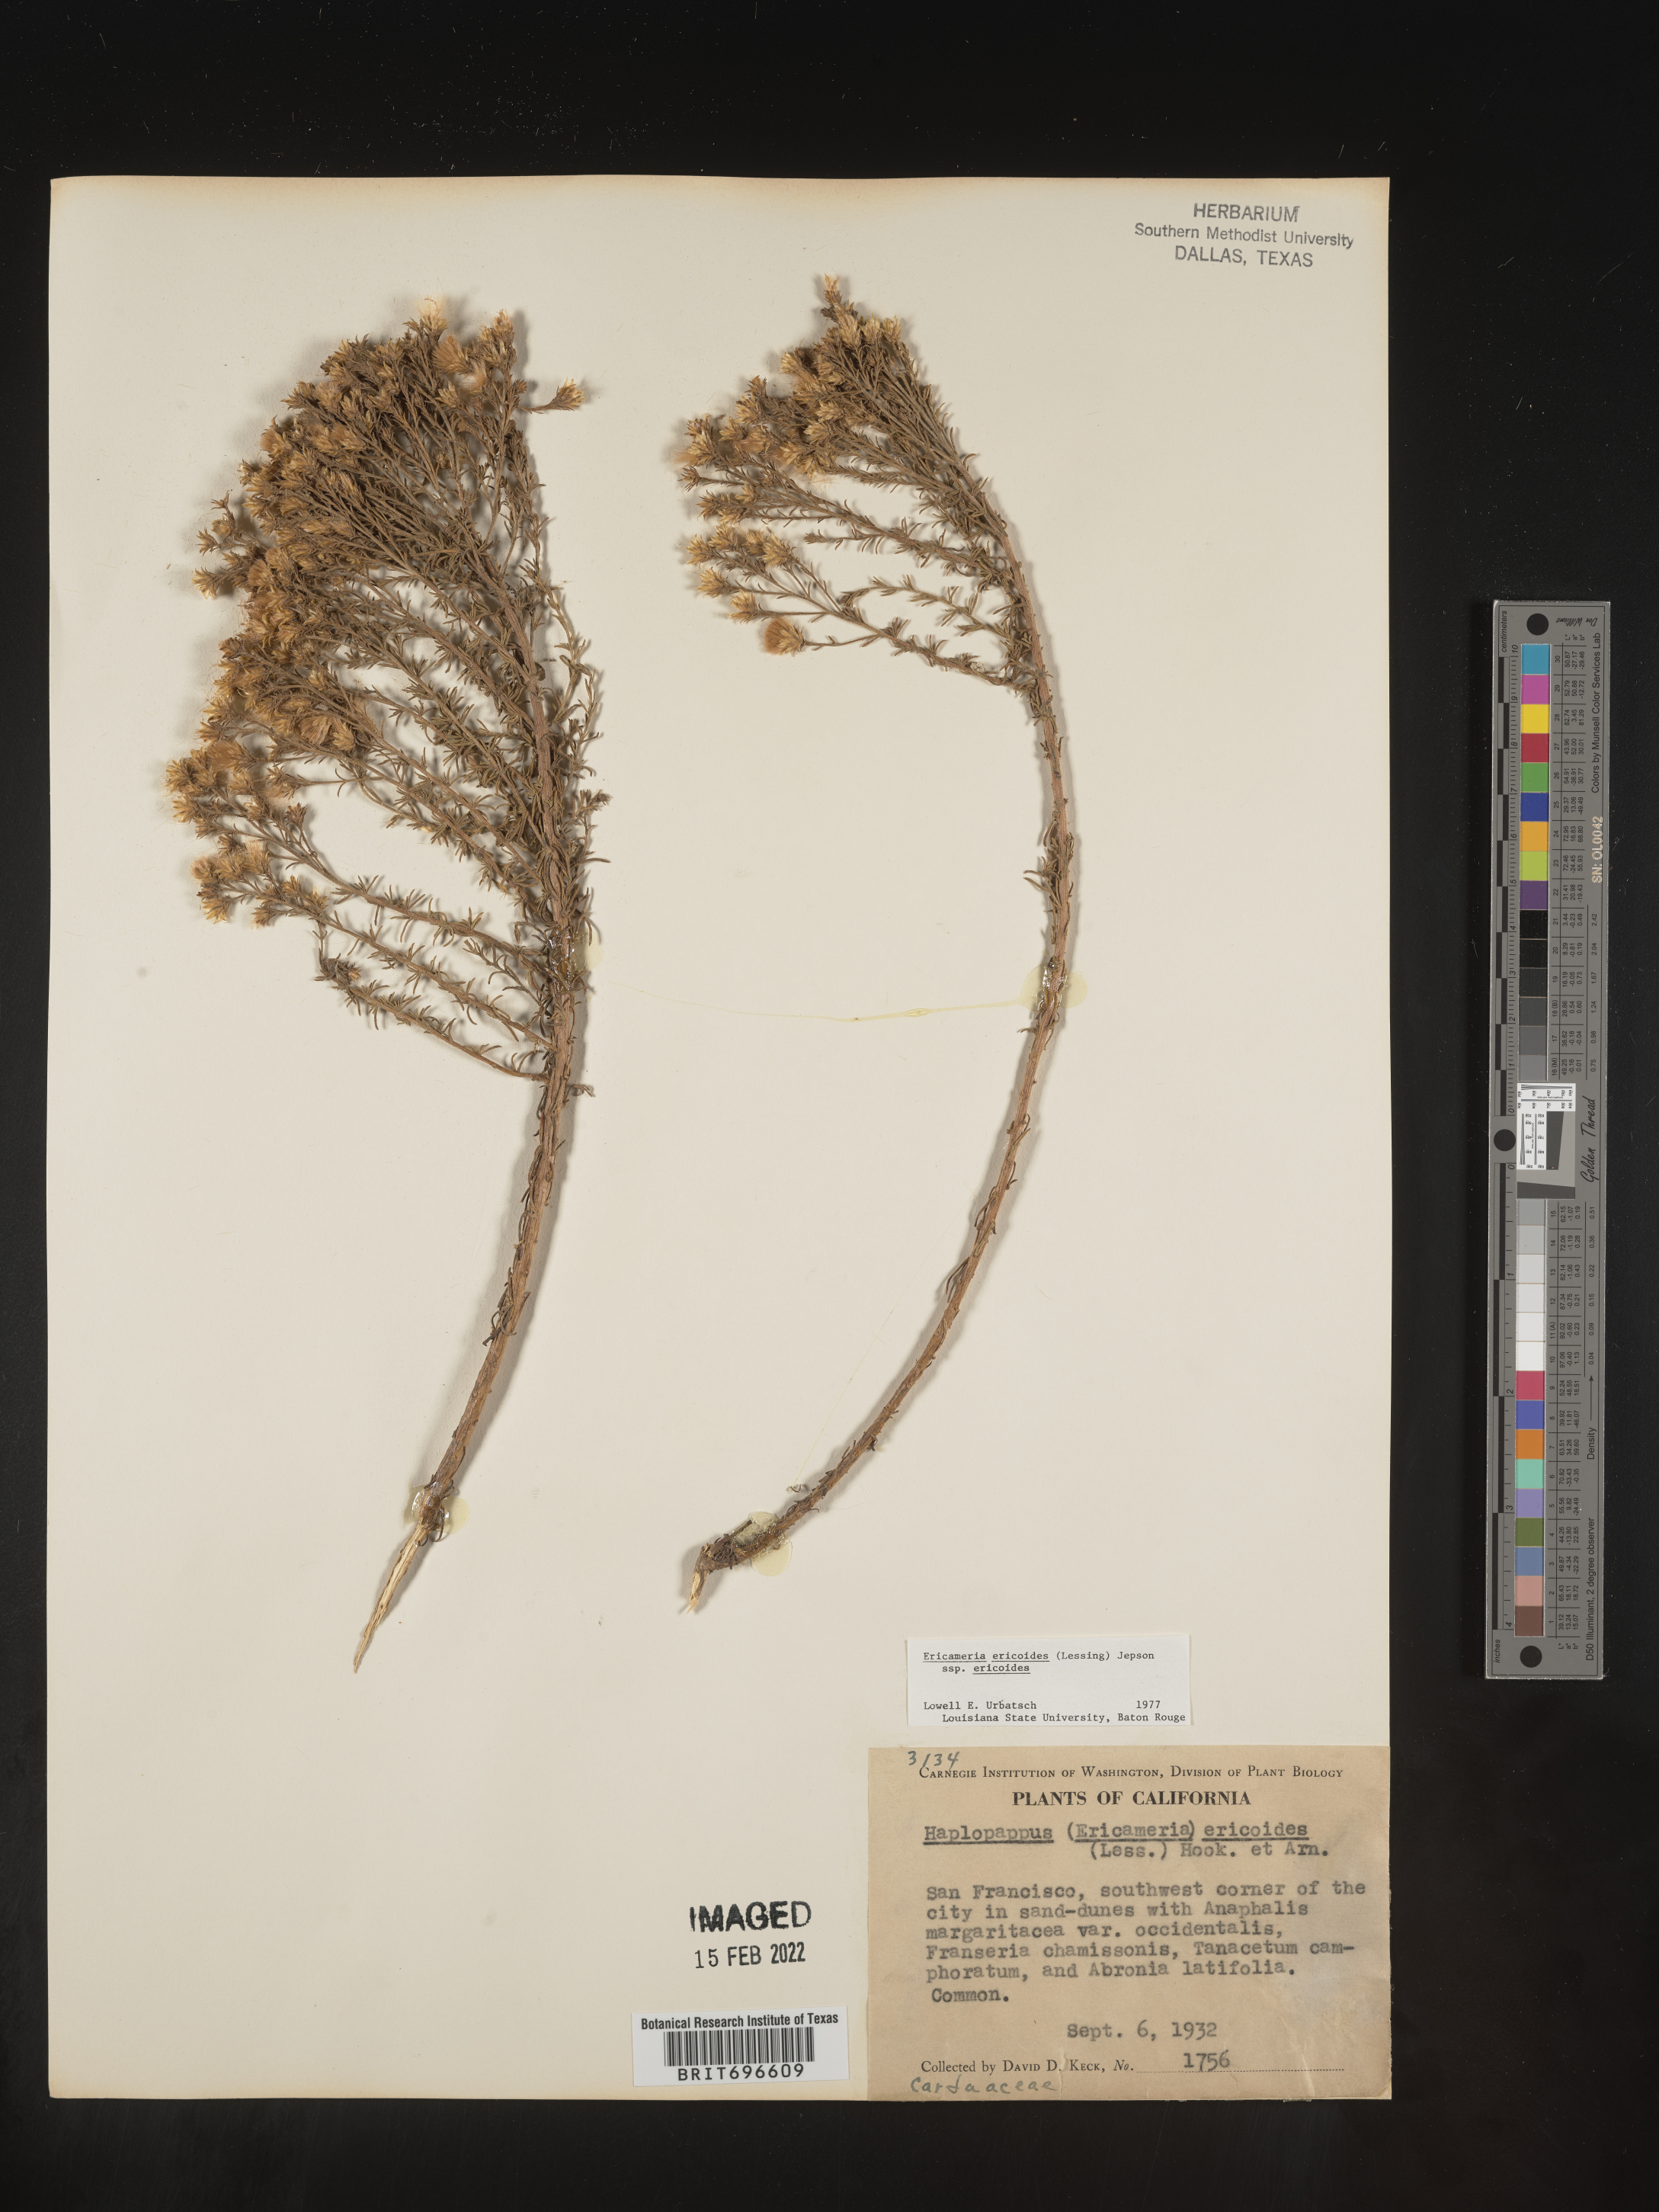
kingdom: Plantae
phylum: Tracheophyta
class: Magnoliopsida
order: Asterales
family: Asteraceae
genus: Ericameria
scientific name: Ericameria ericoides
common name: California goldenbush
